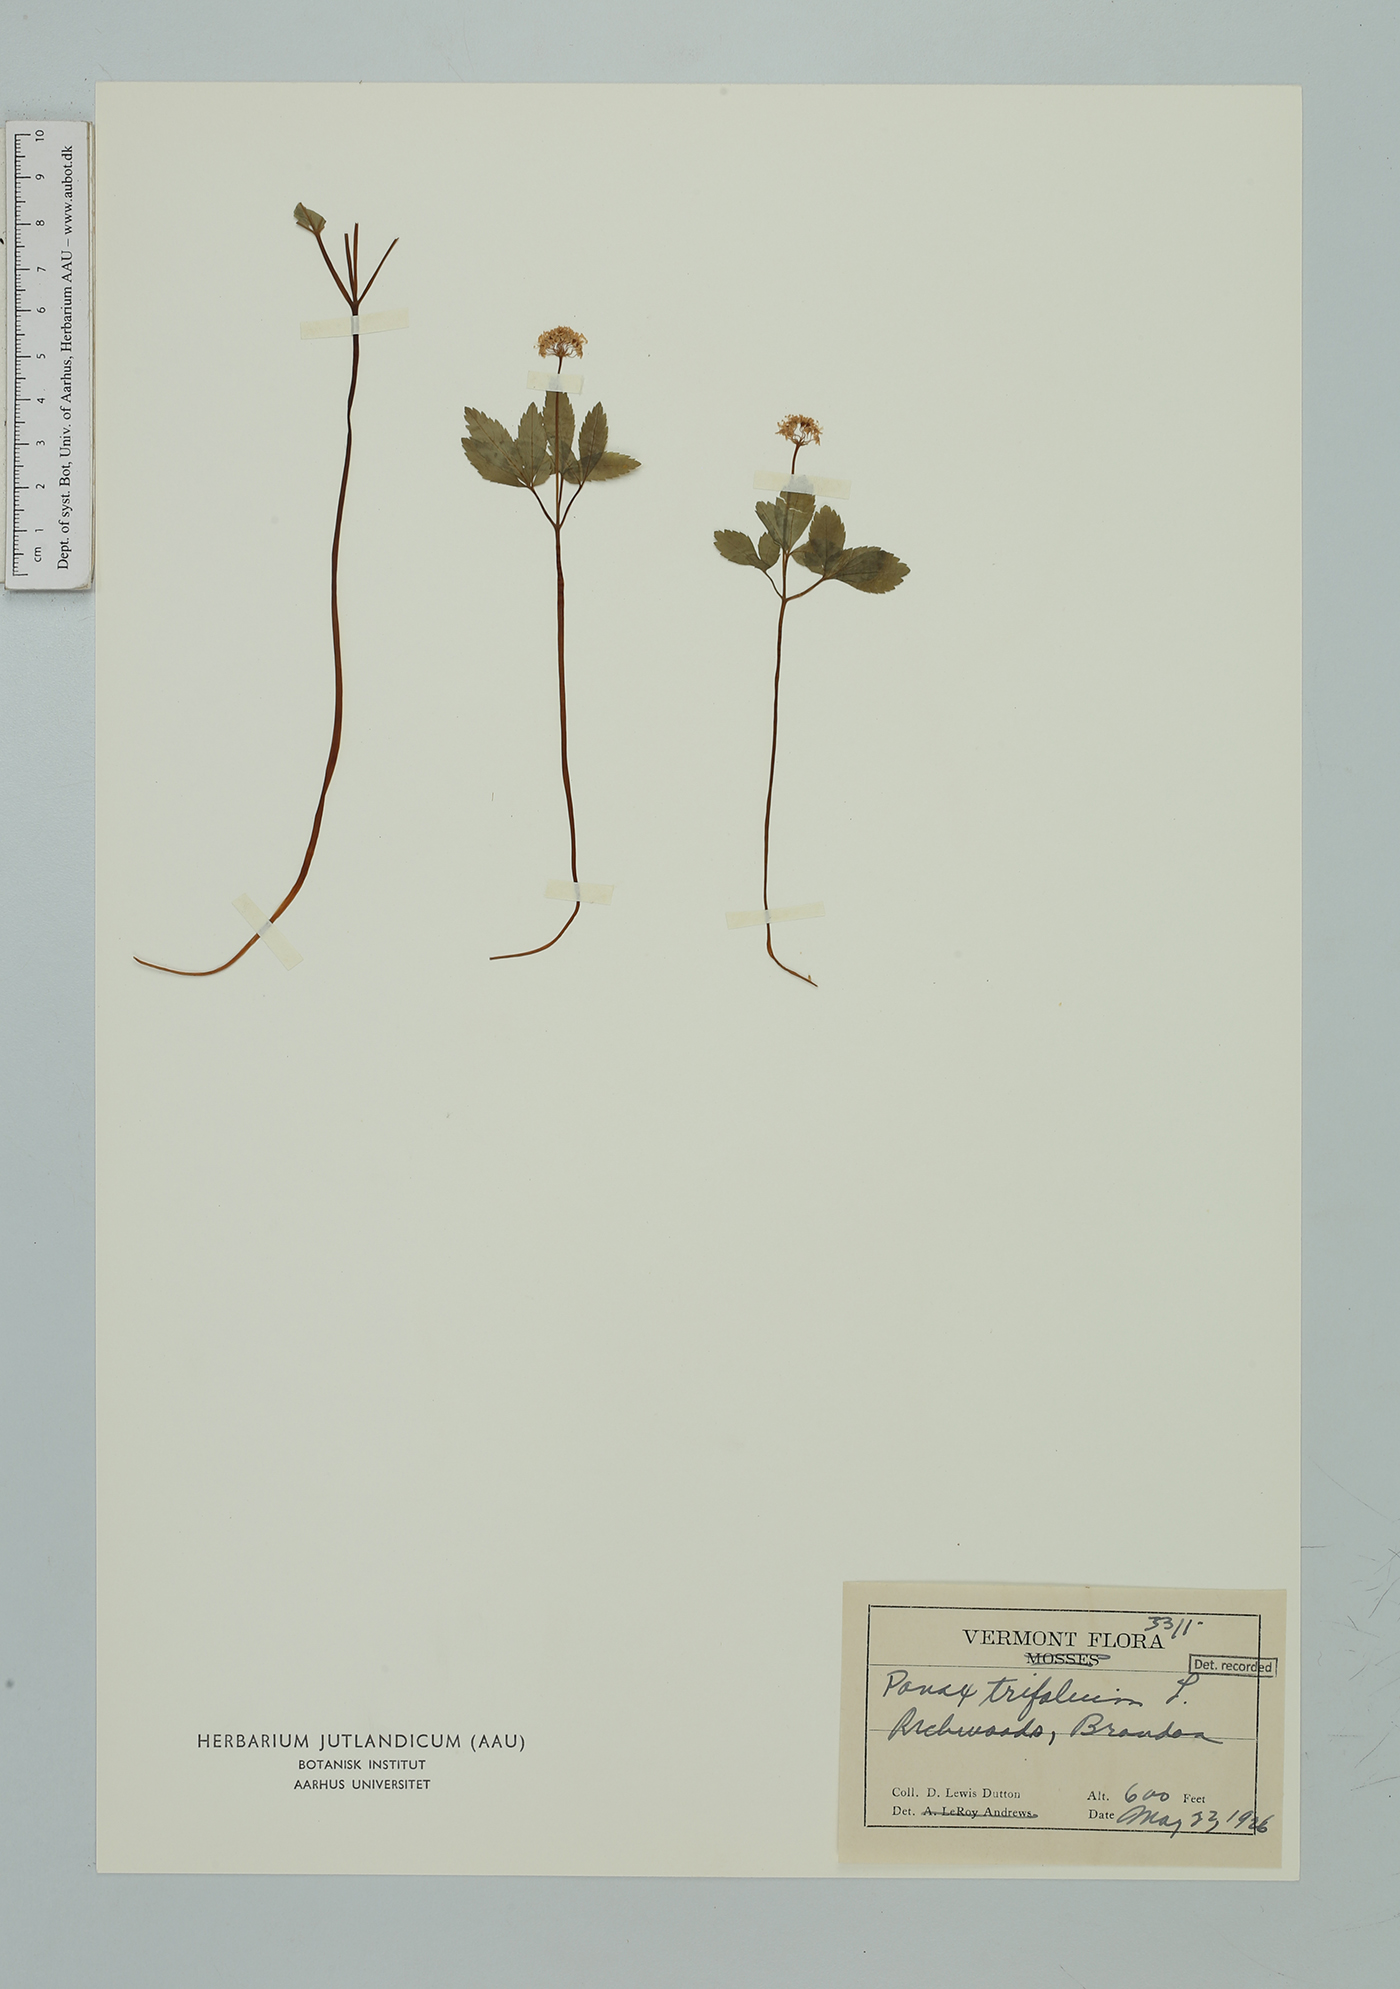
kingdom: Plantae
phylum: Tracheophyta
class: Magnoliopsida
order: Apiales
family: Araliaceae
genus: Panax
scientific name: Panax trifolius
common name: Dwarf ginseng
